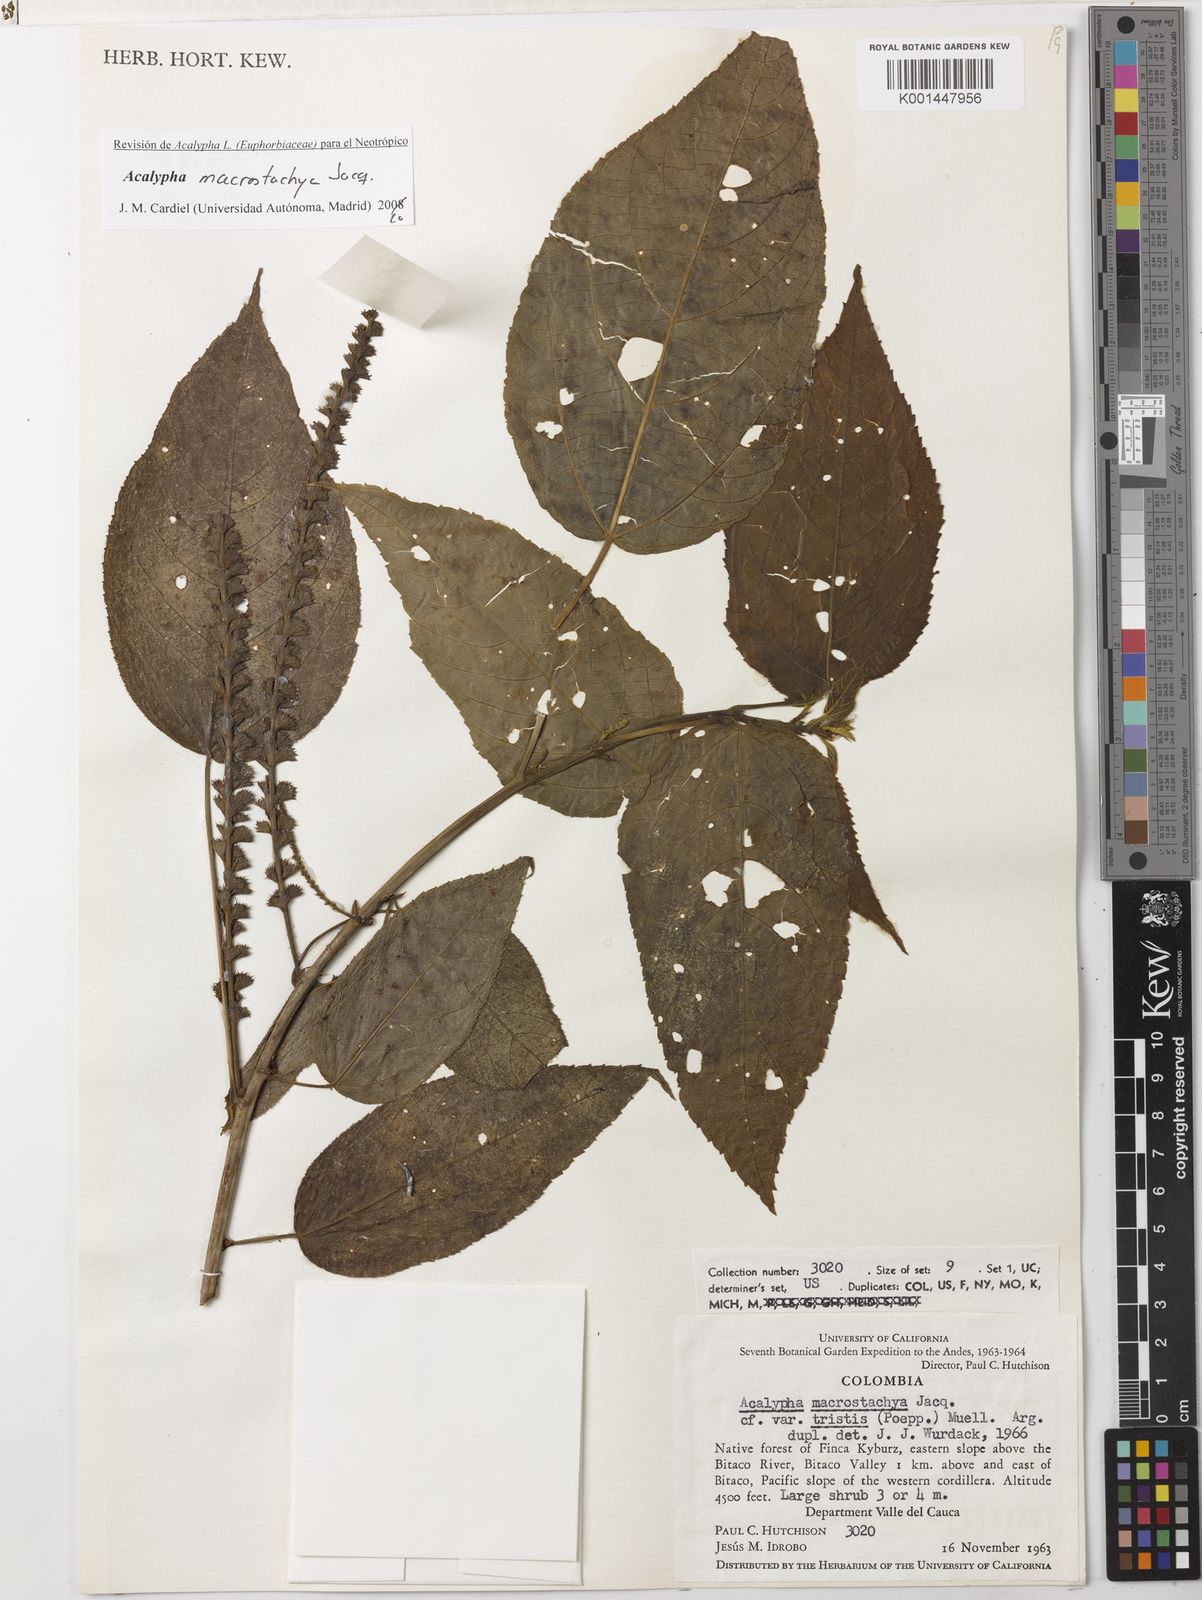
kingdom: Plantae
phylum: Tracheophyta
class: Magnoliopsida
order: Malpighiales
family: Euphorbiaceae
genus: Acalypha
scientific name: Acalypha macrostachya
